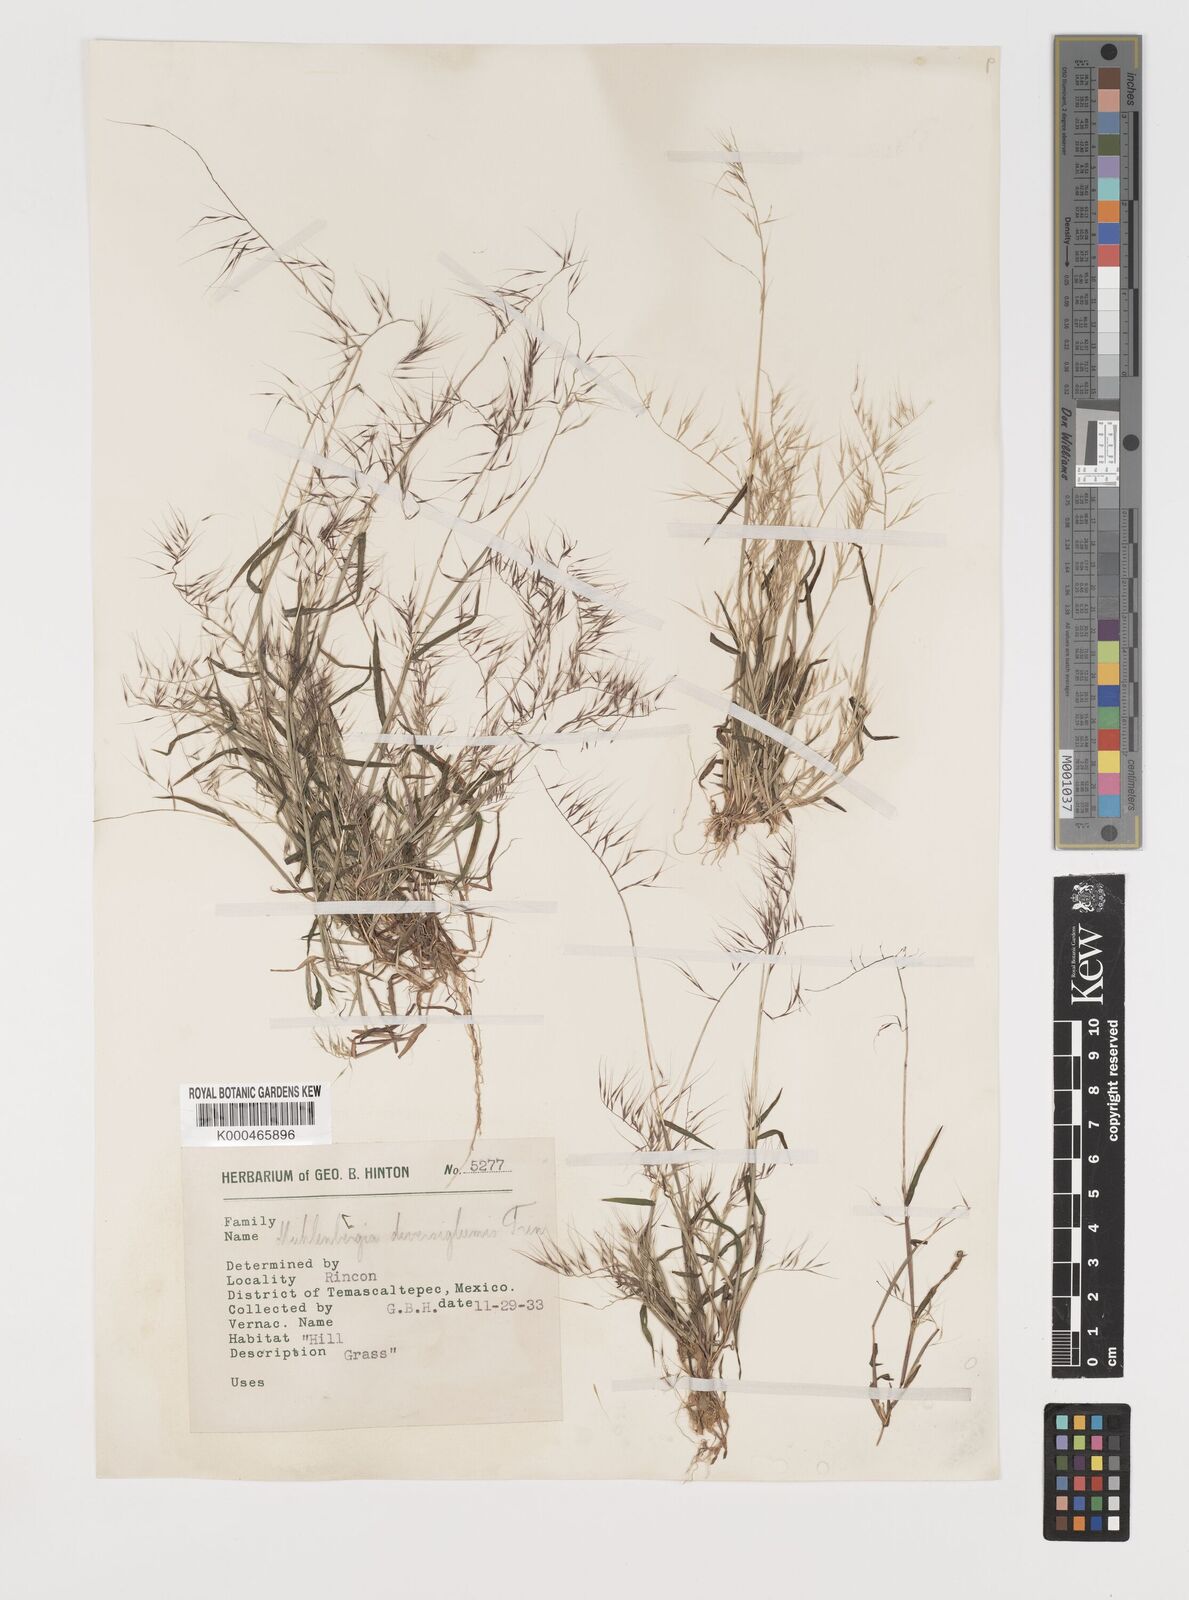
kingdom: Plantae
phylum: Tracheophyta
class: Liliopsida
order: Poales
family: Poaceae
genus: Muhlenbergia
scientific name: Muhlenbergia diversiglumis
